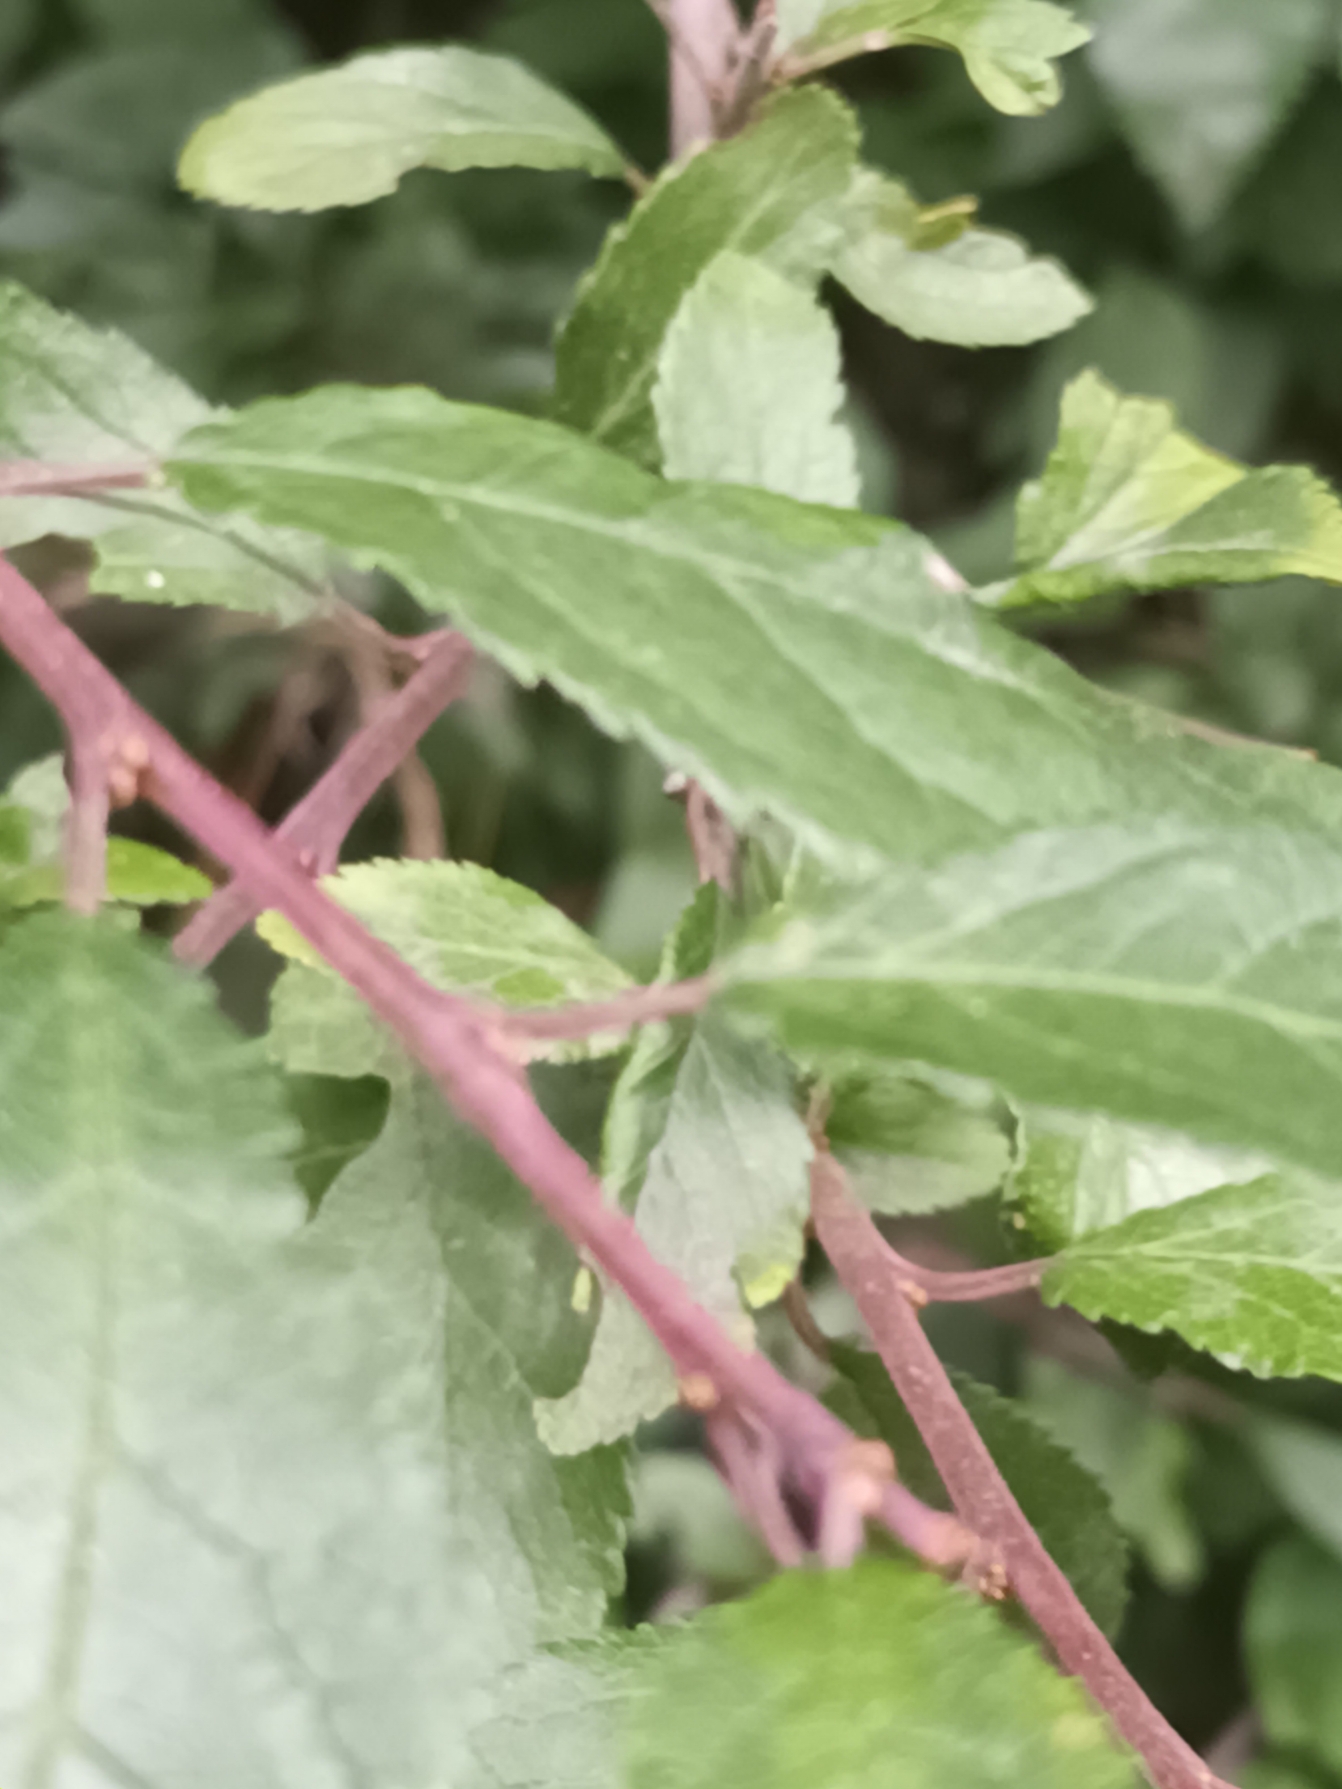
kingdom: Plantae
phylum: Tracheophyta
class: Magnoliopsida
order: Rosales
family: Rosaceae
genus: Prunus
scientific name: Prunus
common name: Mirabel × slåen
